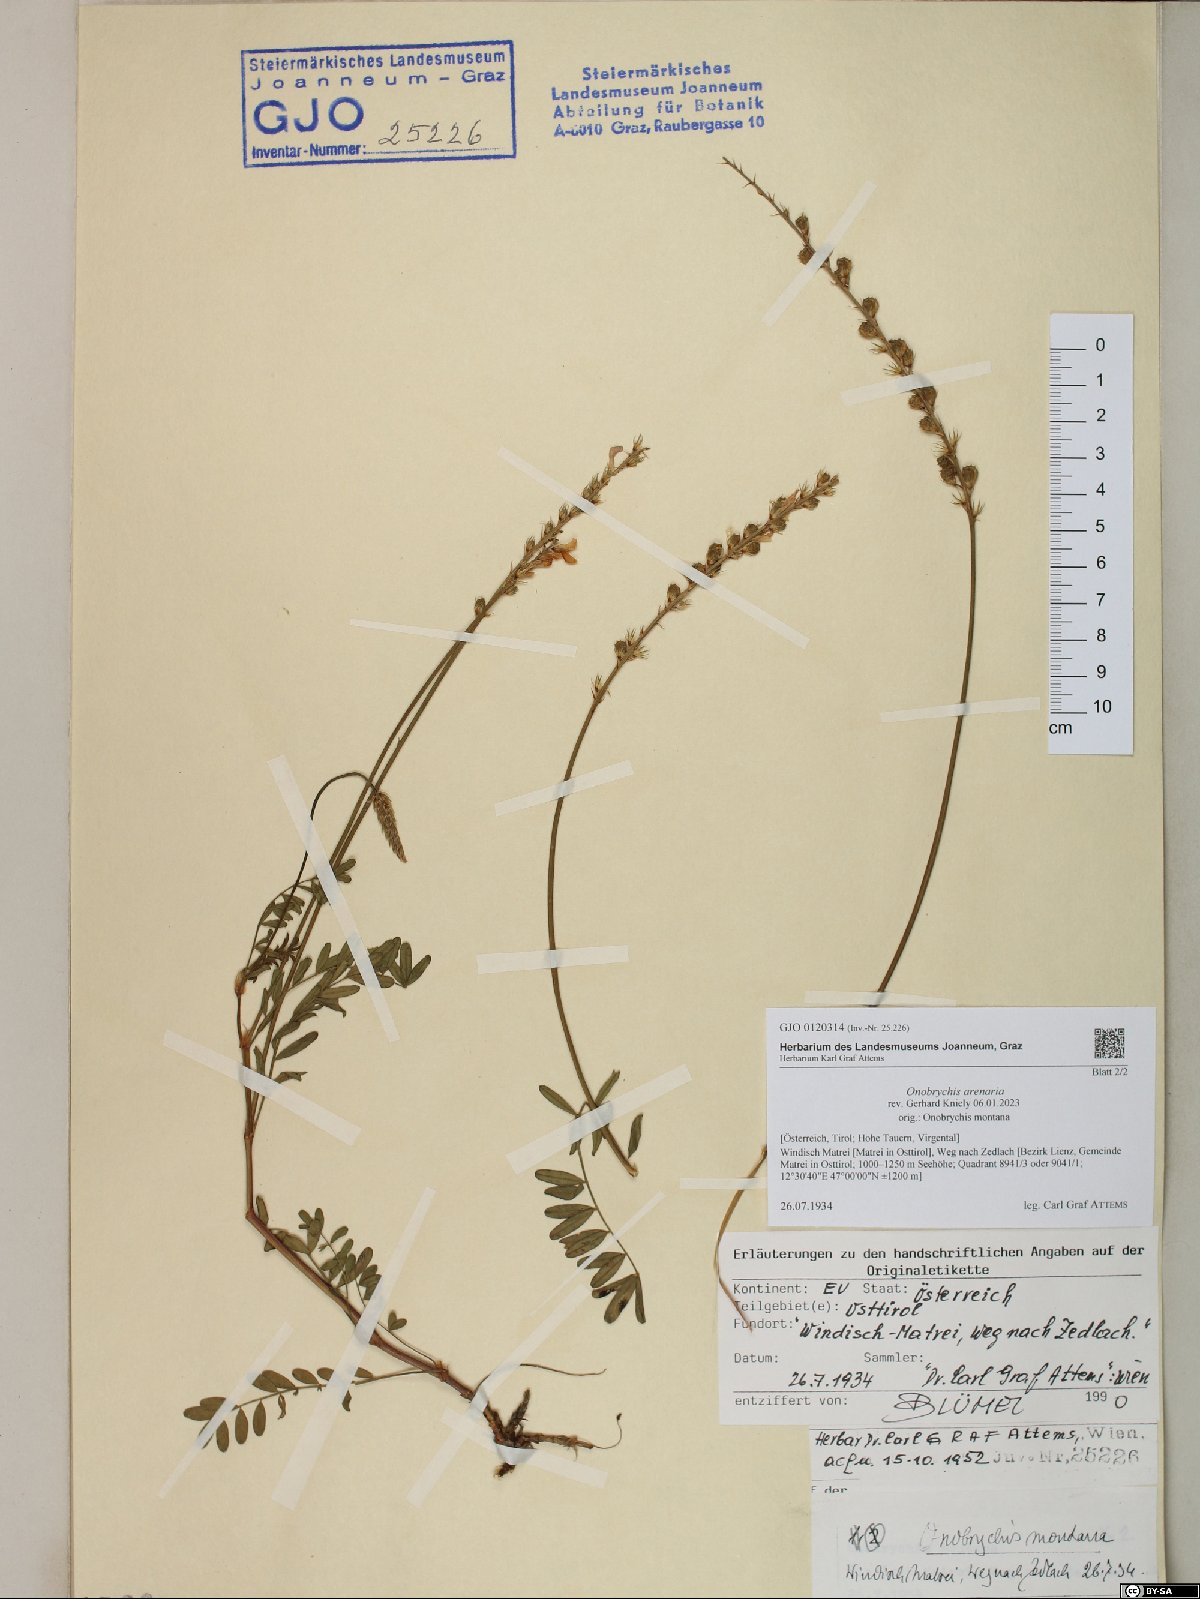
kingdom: Plantae
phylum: Tracheophyta
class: Magnoliopsida
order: Fabales
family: Fabaceae
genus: Onobrychis
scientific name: Onobrychis arenaria
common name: Sand esparcet
